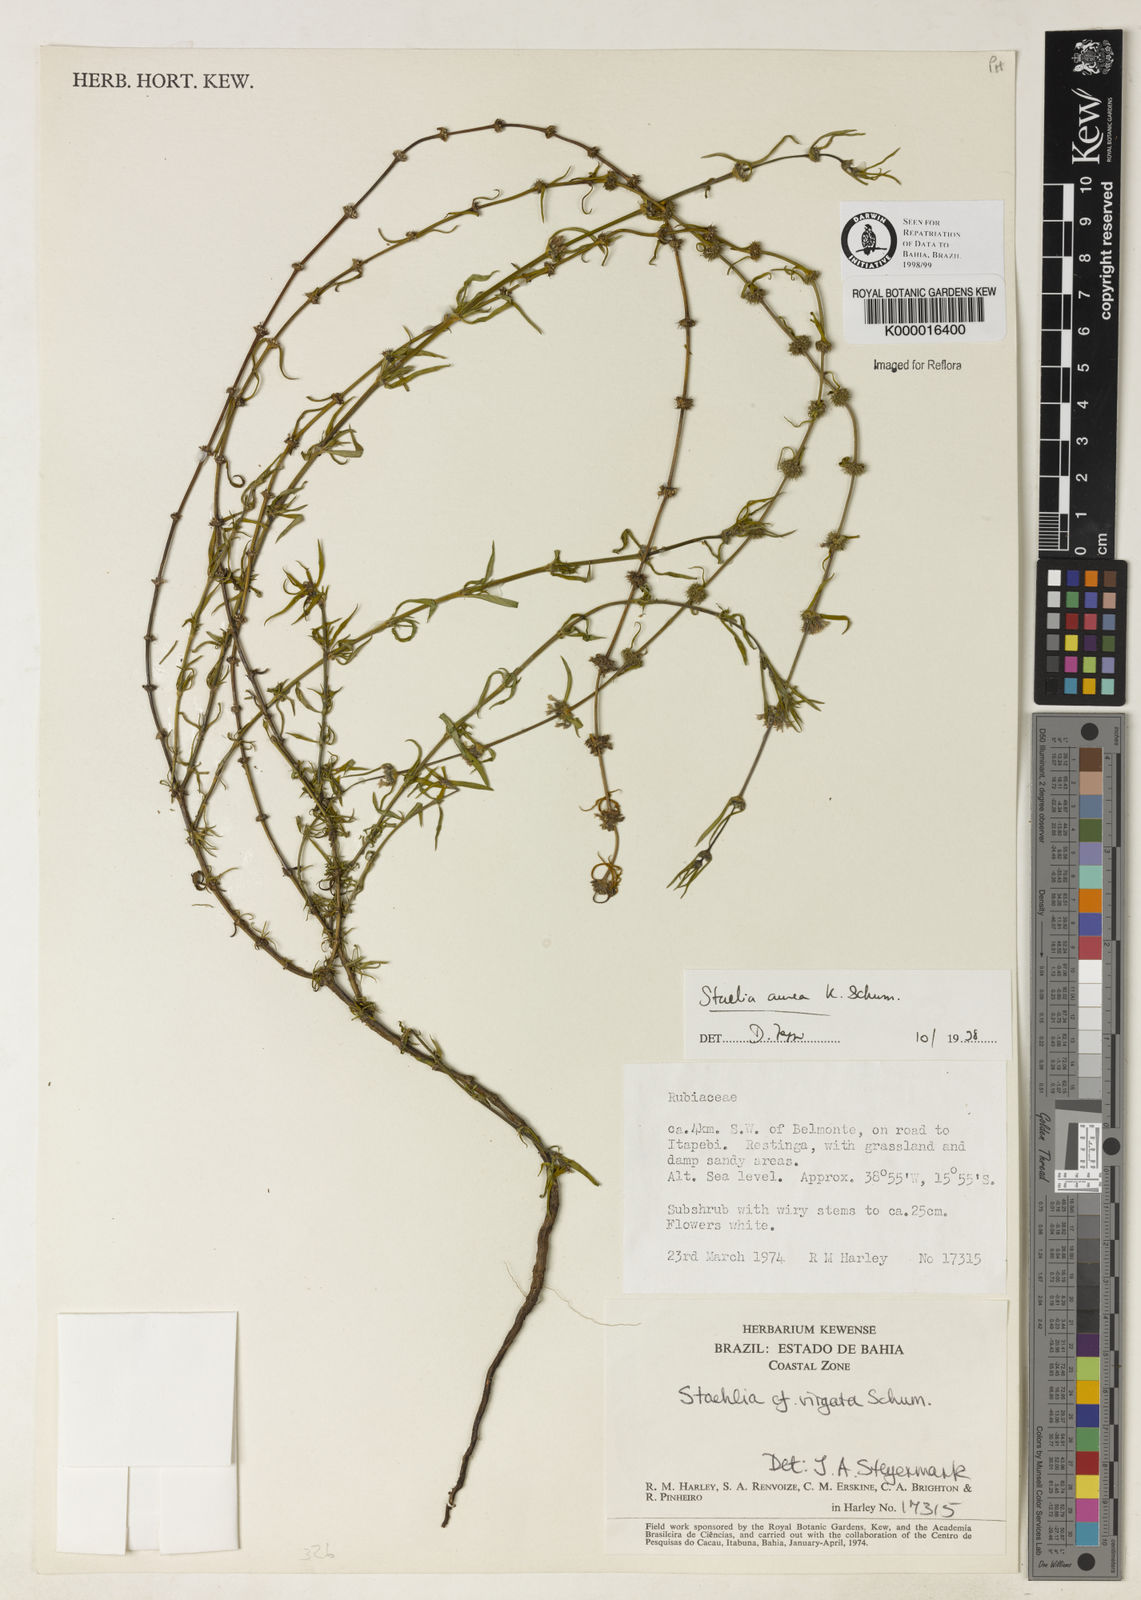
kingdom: Plantae
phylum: Tracheophyta
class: Magnoliopsida
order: Gentianales
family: Rubiaceae
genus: Staelia
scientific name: Staelia aurea
